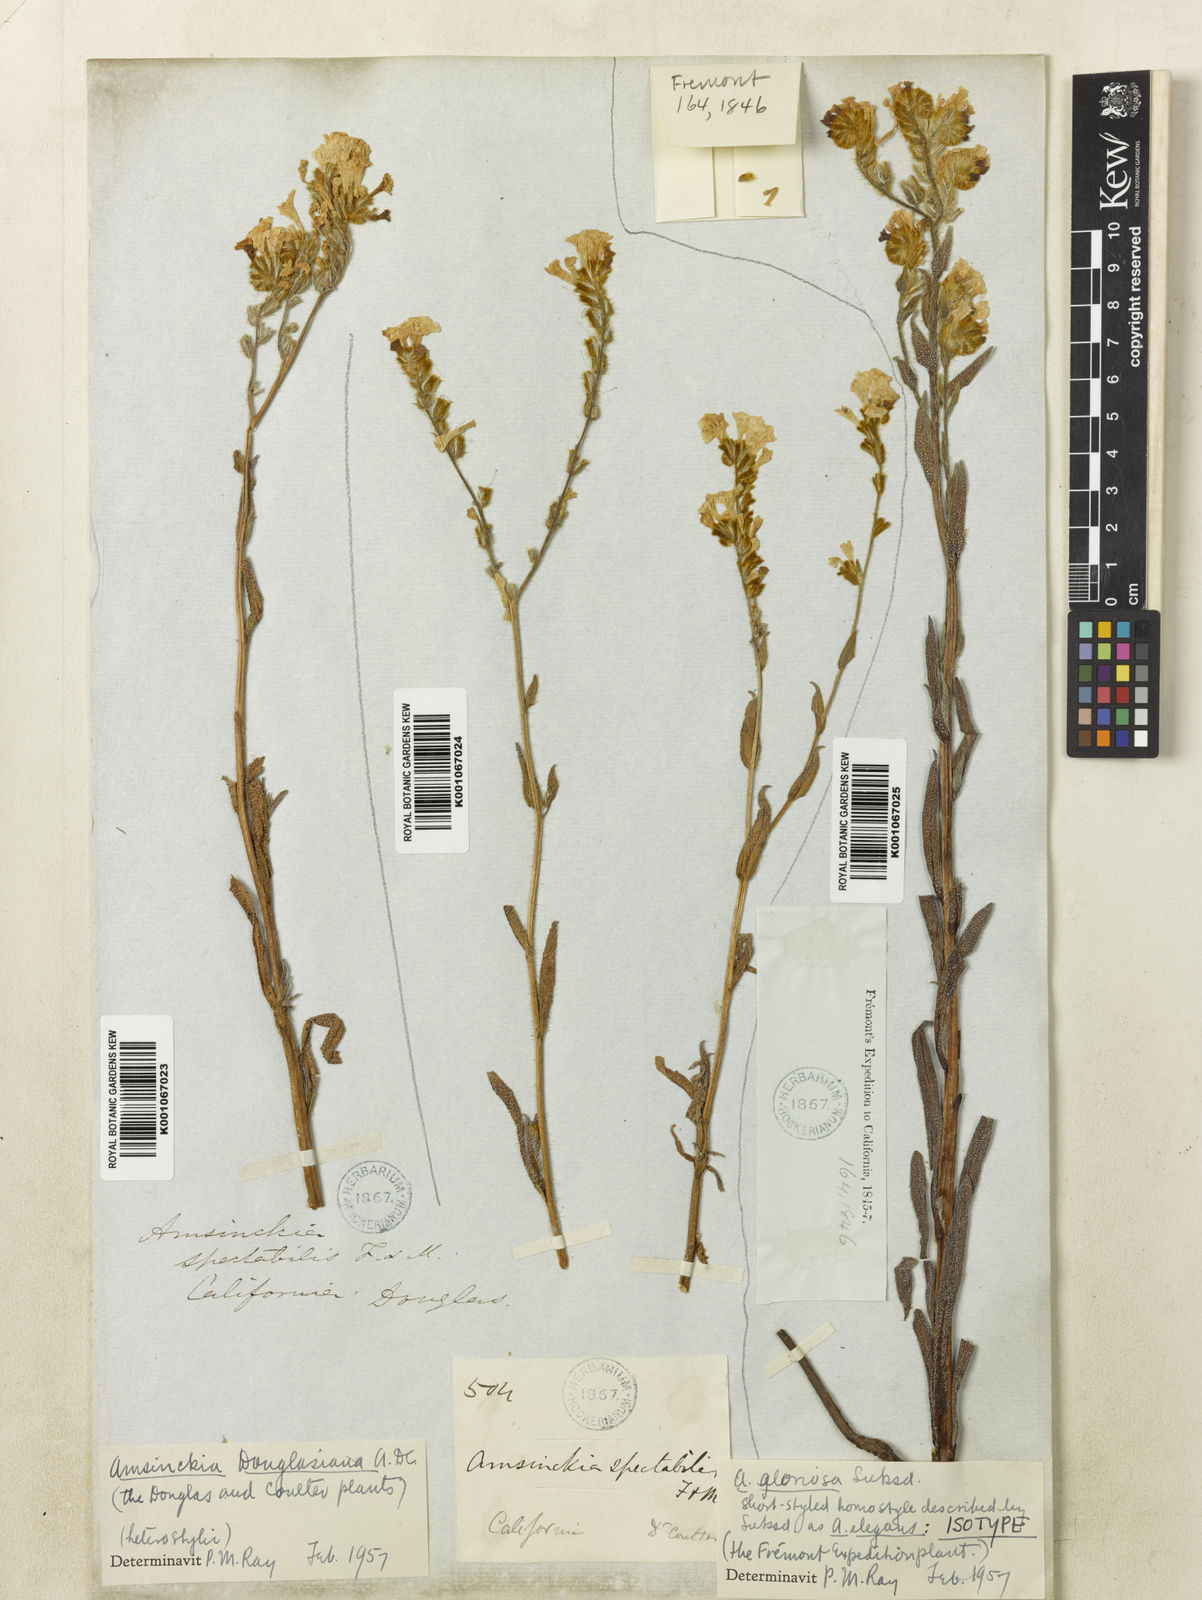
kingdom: Plantae
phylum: Tracheophyta
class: Magnoliopsida
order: Boraginales
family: Boraginaceae
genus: Amsinckia
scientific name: Amsinckia douglasiana
